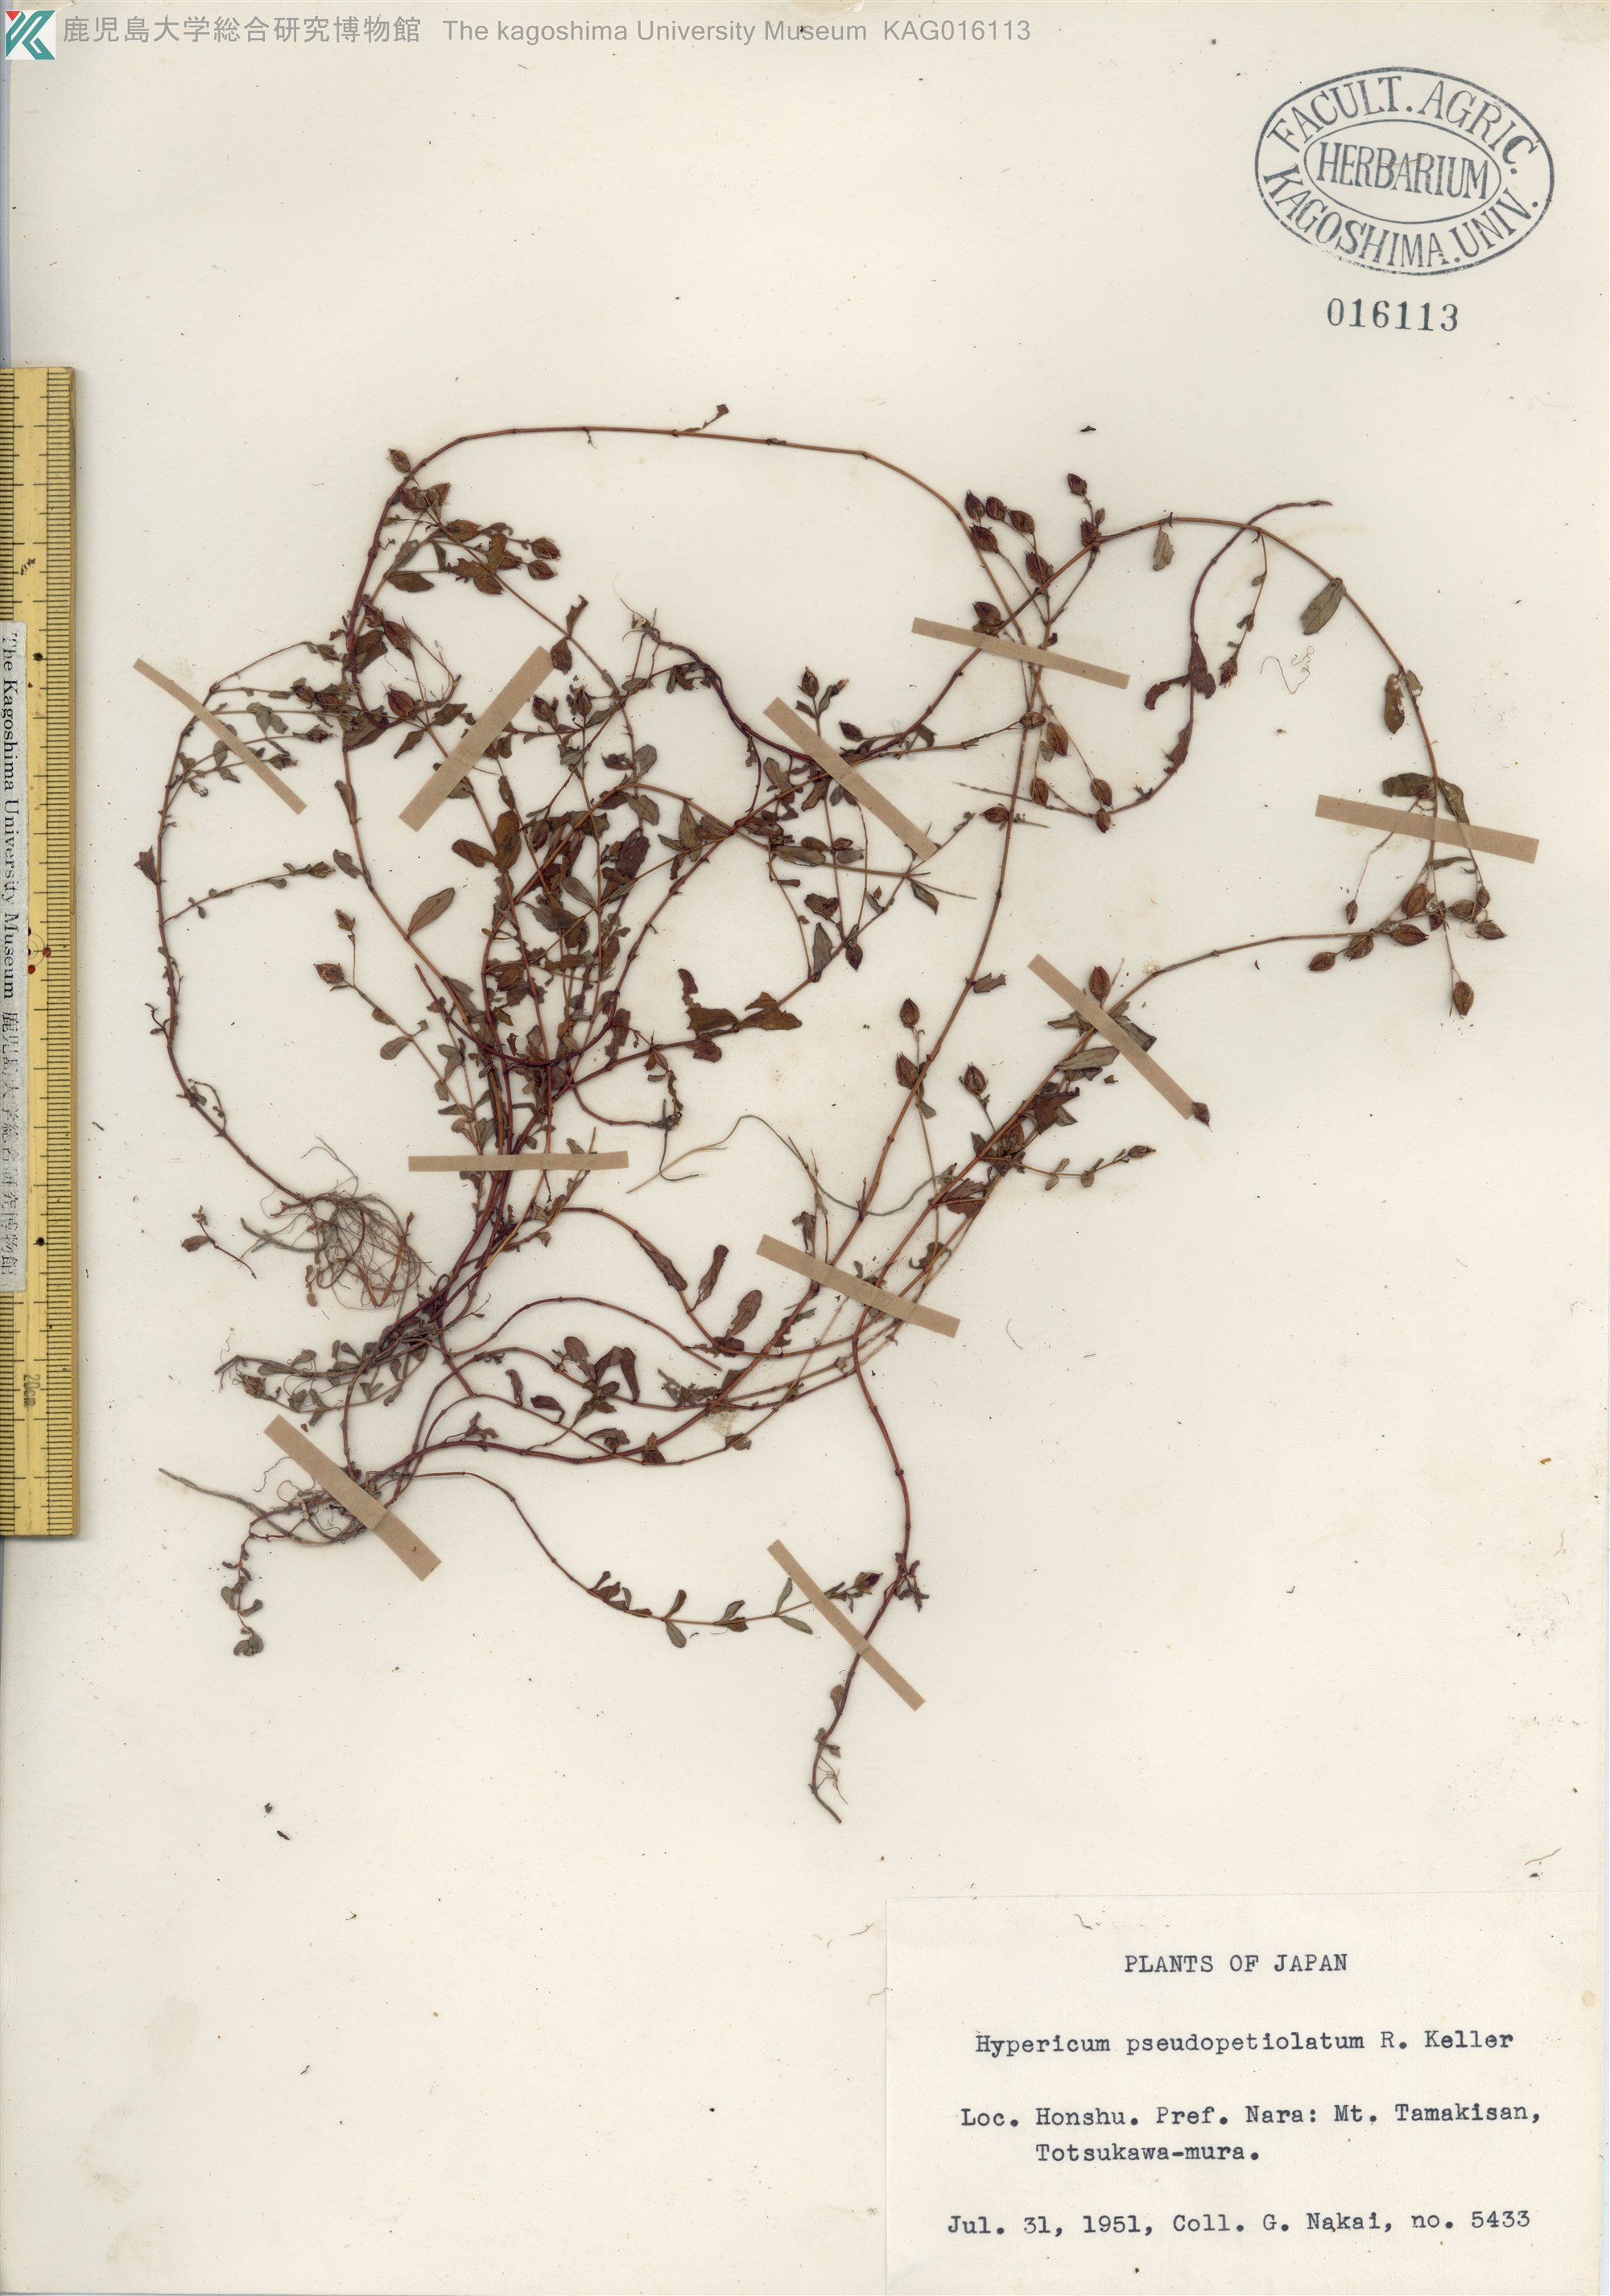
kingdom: Plantae
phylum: Tracheophyta
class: Magnoliopsida
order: Malpighiales
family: Hypericaceae
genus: Hypericum
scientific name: Hypericum pseudopetiolatum
